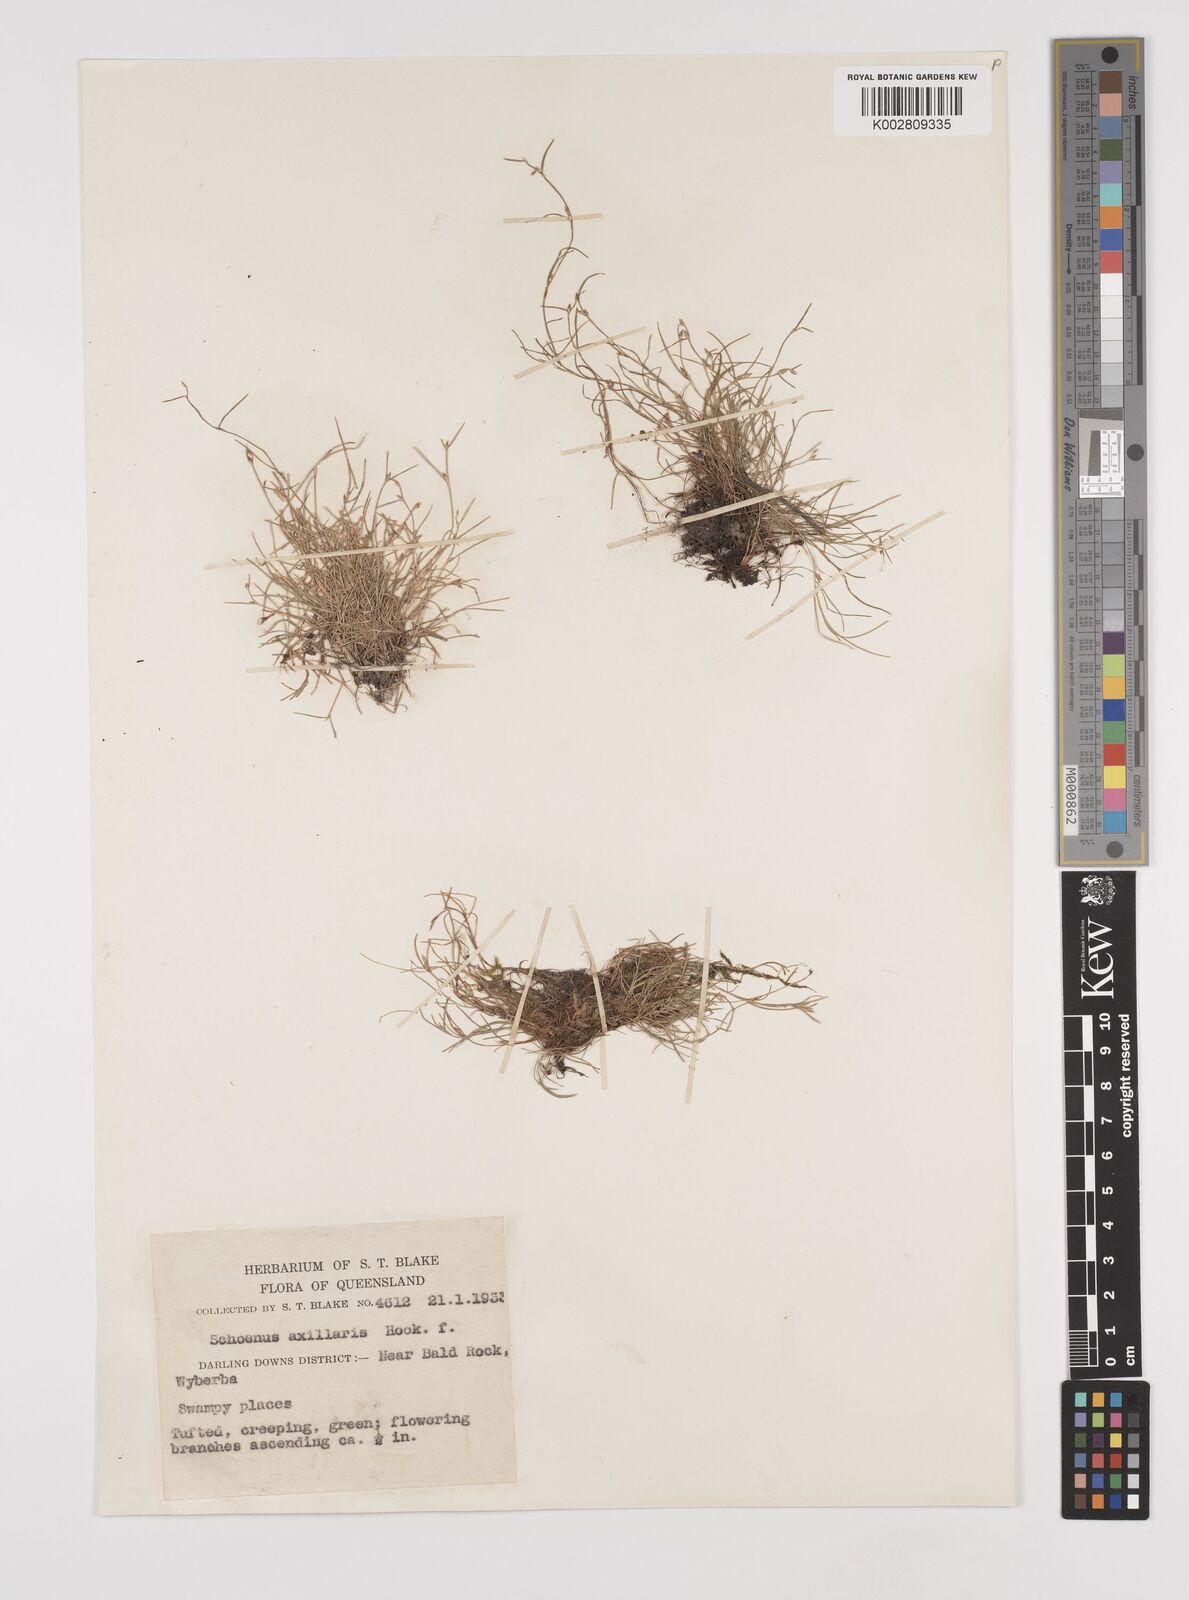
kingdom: Plantae
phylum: Tracheophyta
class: Liliopsida
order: Poales
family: Cyperaceae
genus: Schoenus
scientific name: Schoenus maschalinus
